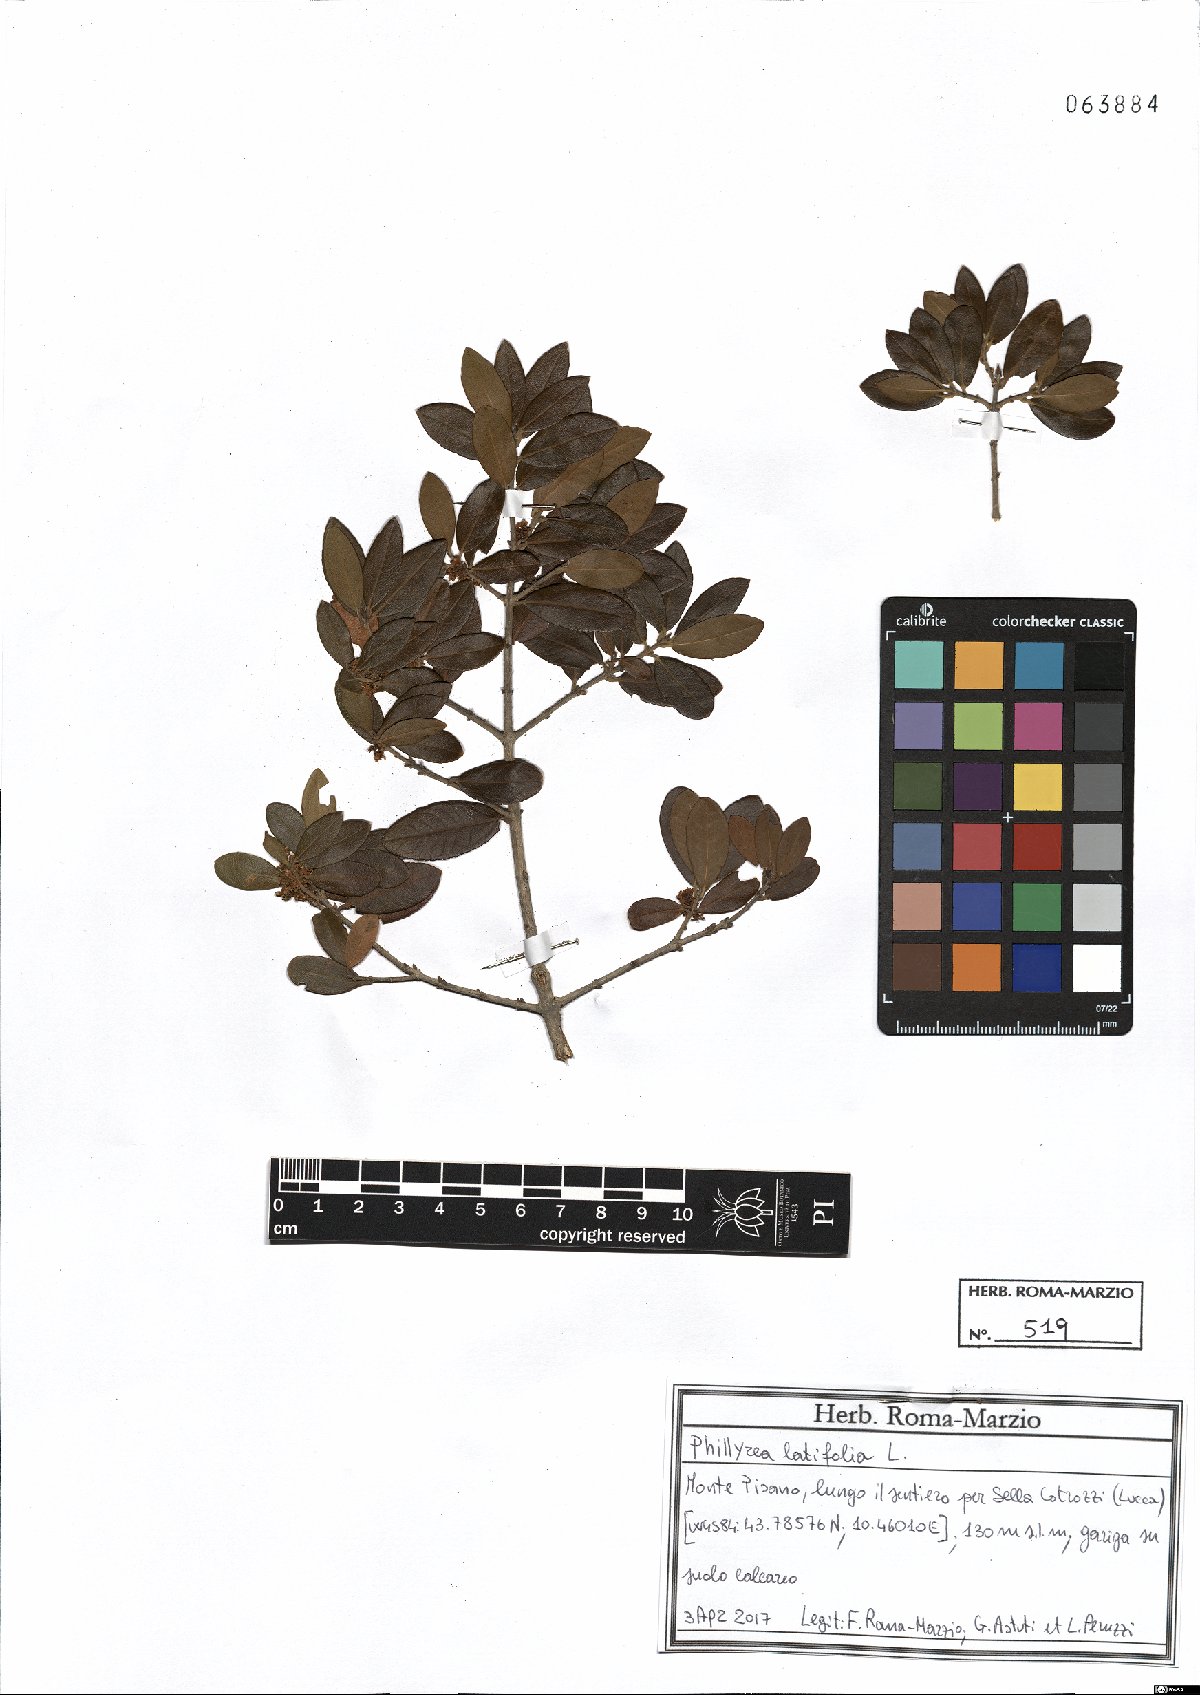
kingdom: Plantae
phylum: Tracheophyta
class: Magnoliopsida
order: Lamiales
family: Oleaceae
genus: Phillyrea
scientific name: Phillyrea latifolia
